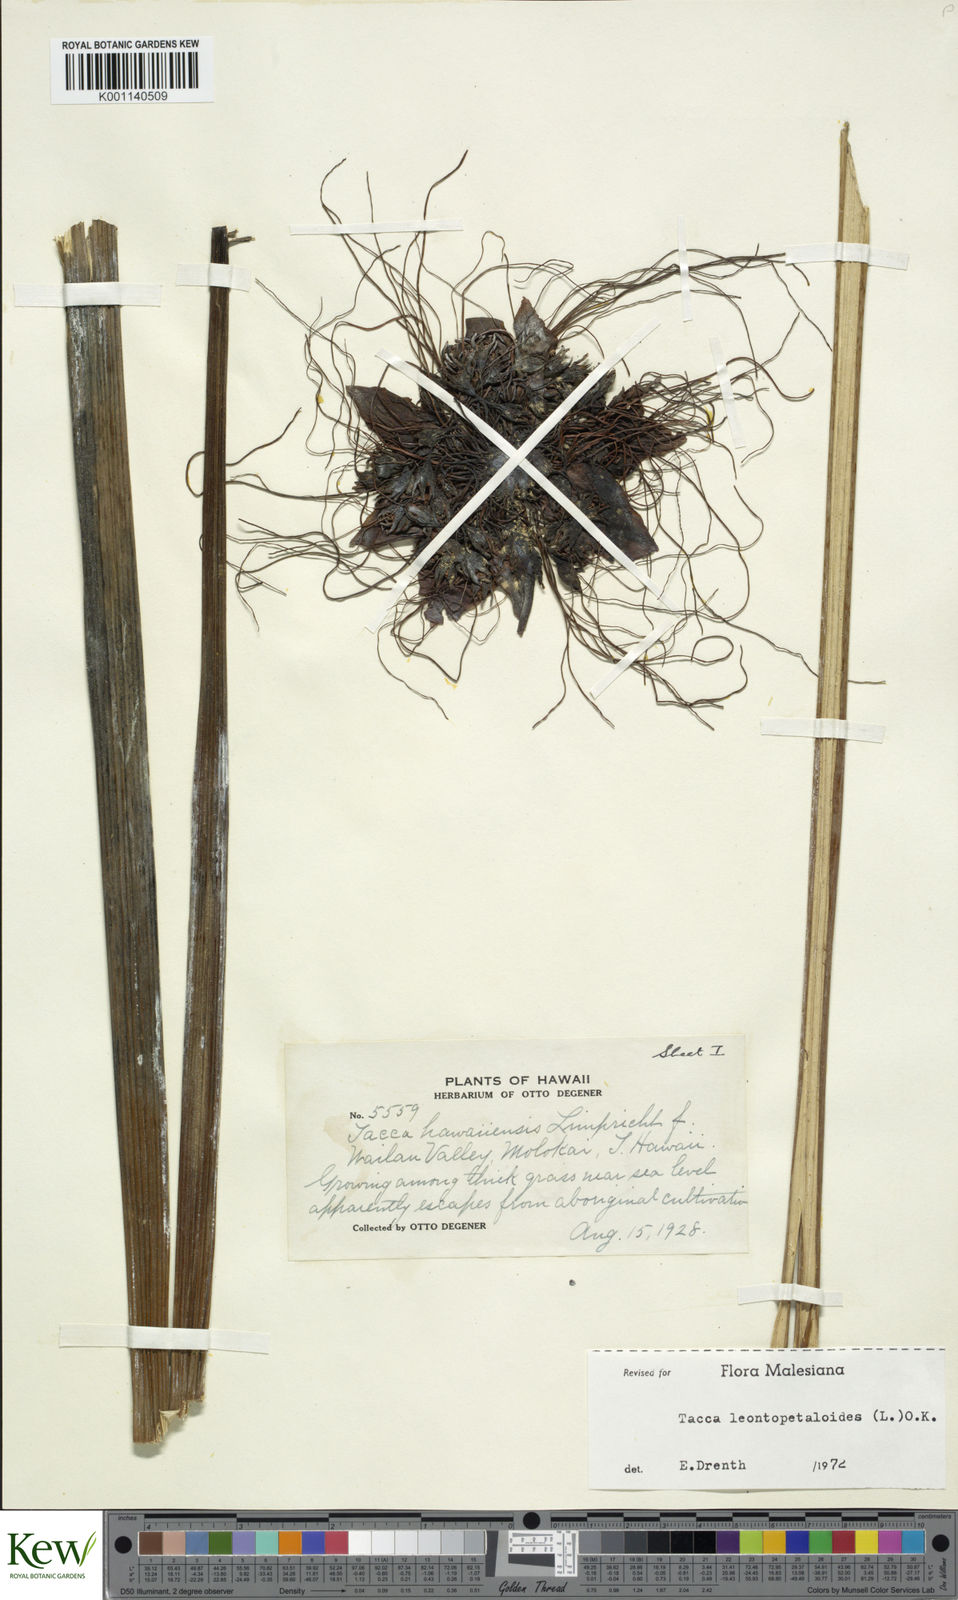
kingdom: Plantae
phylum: Tracheophyta
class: Liliopsida
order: Dioscoreales
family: Dioscoreaceae
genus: Tacca
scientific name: Tacca leontopetaloides
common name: Arrowroot
